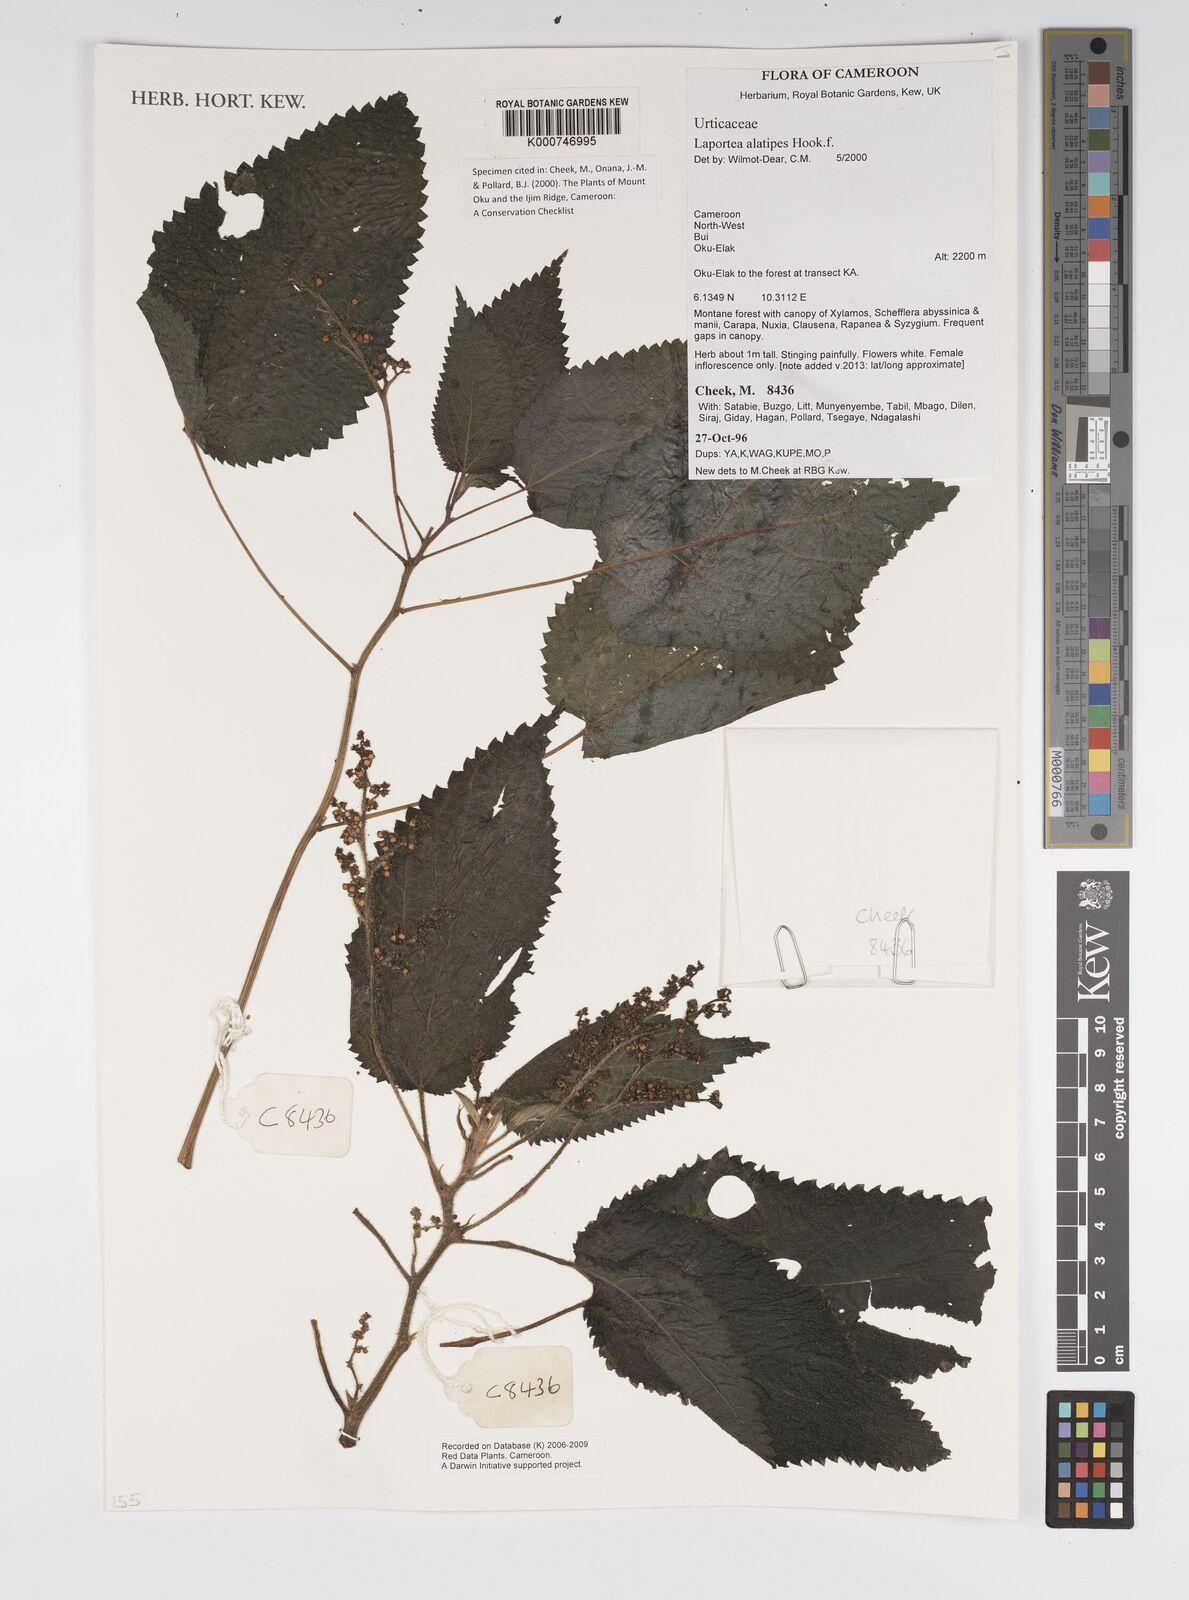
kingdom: Plantae
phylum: Tracheophyta
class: Magnoliopsida
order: Rosales
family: Urticaceae
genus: Laportea
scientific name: Laportea alatipes
